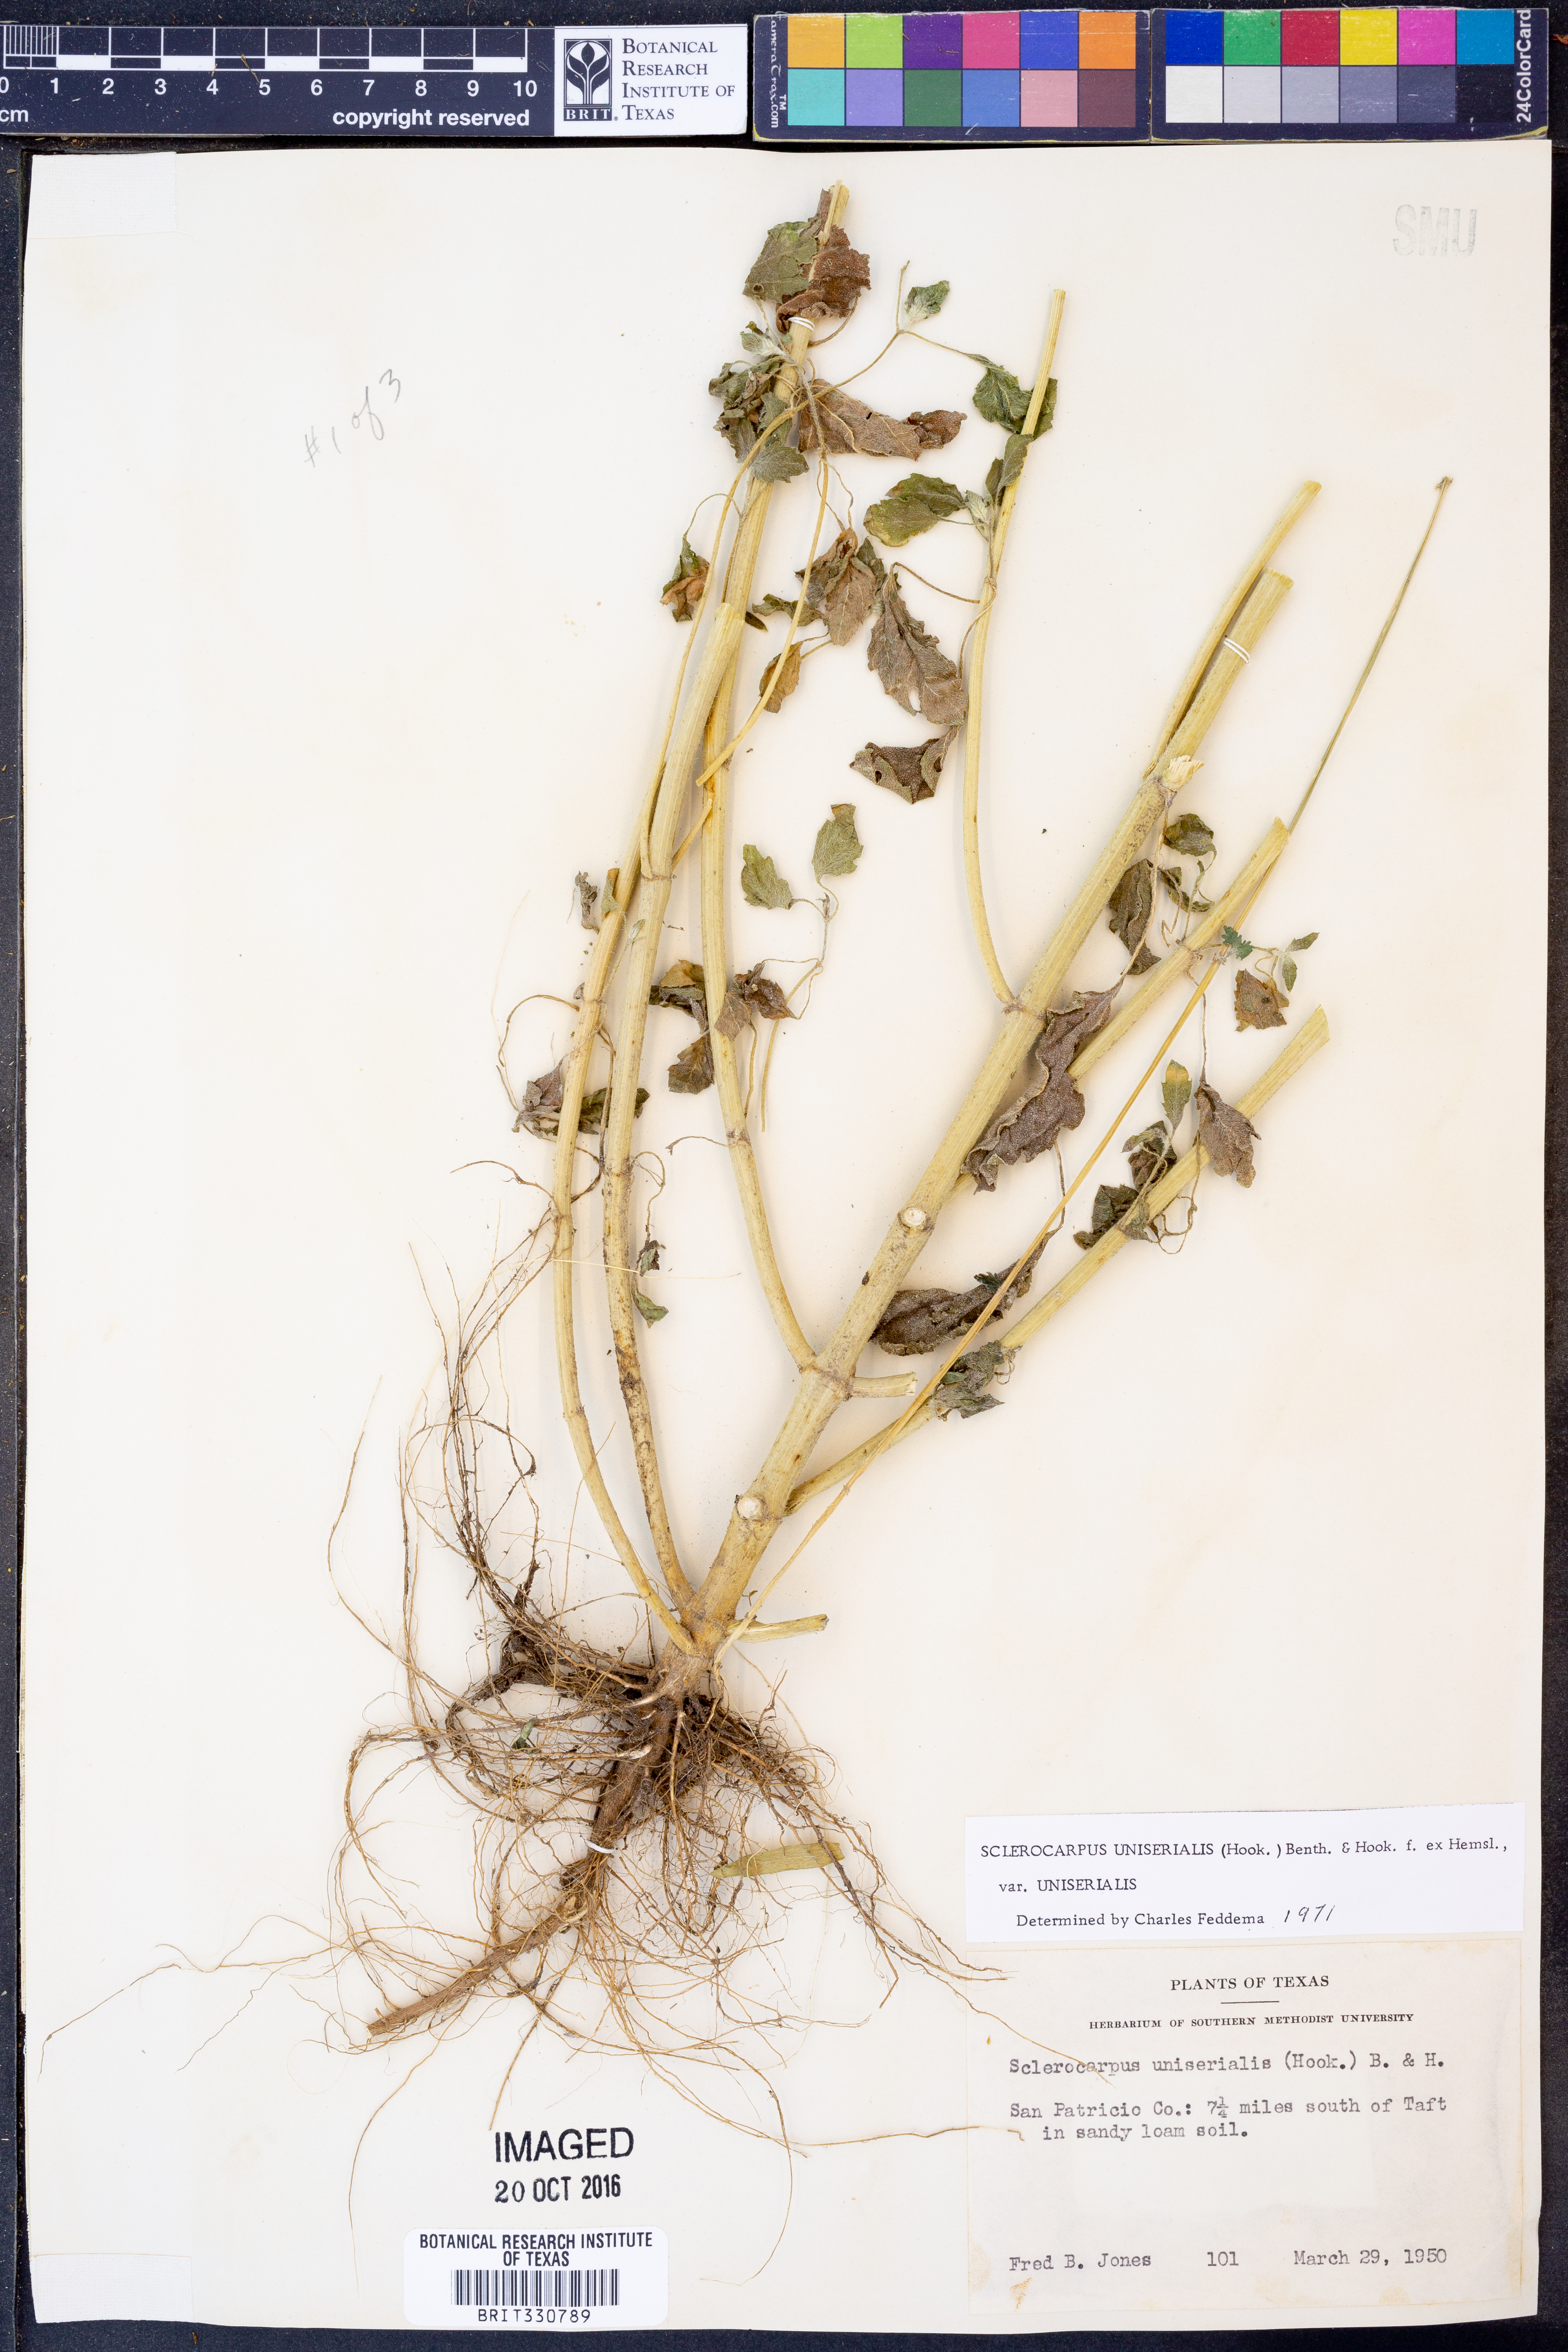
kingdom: Plantae
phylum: Tracheophyta
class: Magnoliopsida
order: Asterales
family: Asteraceae
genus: Sclerocarpus
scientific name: Sclerocarpus uniserialis
